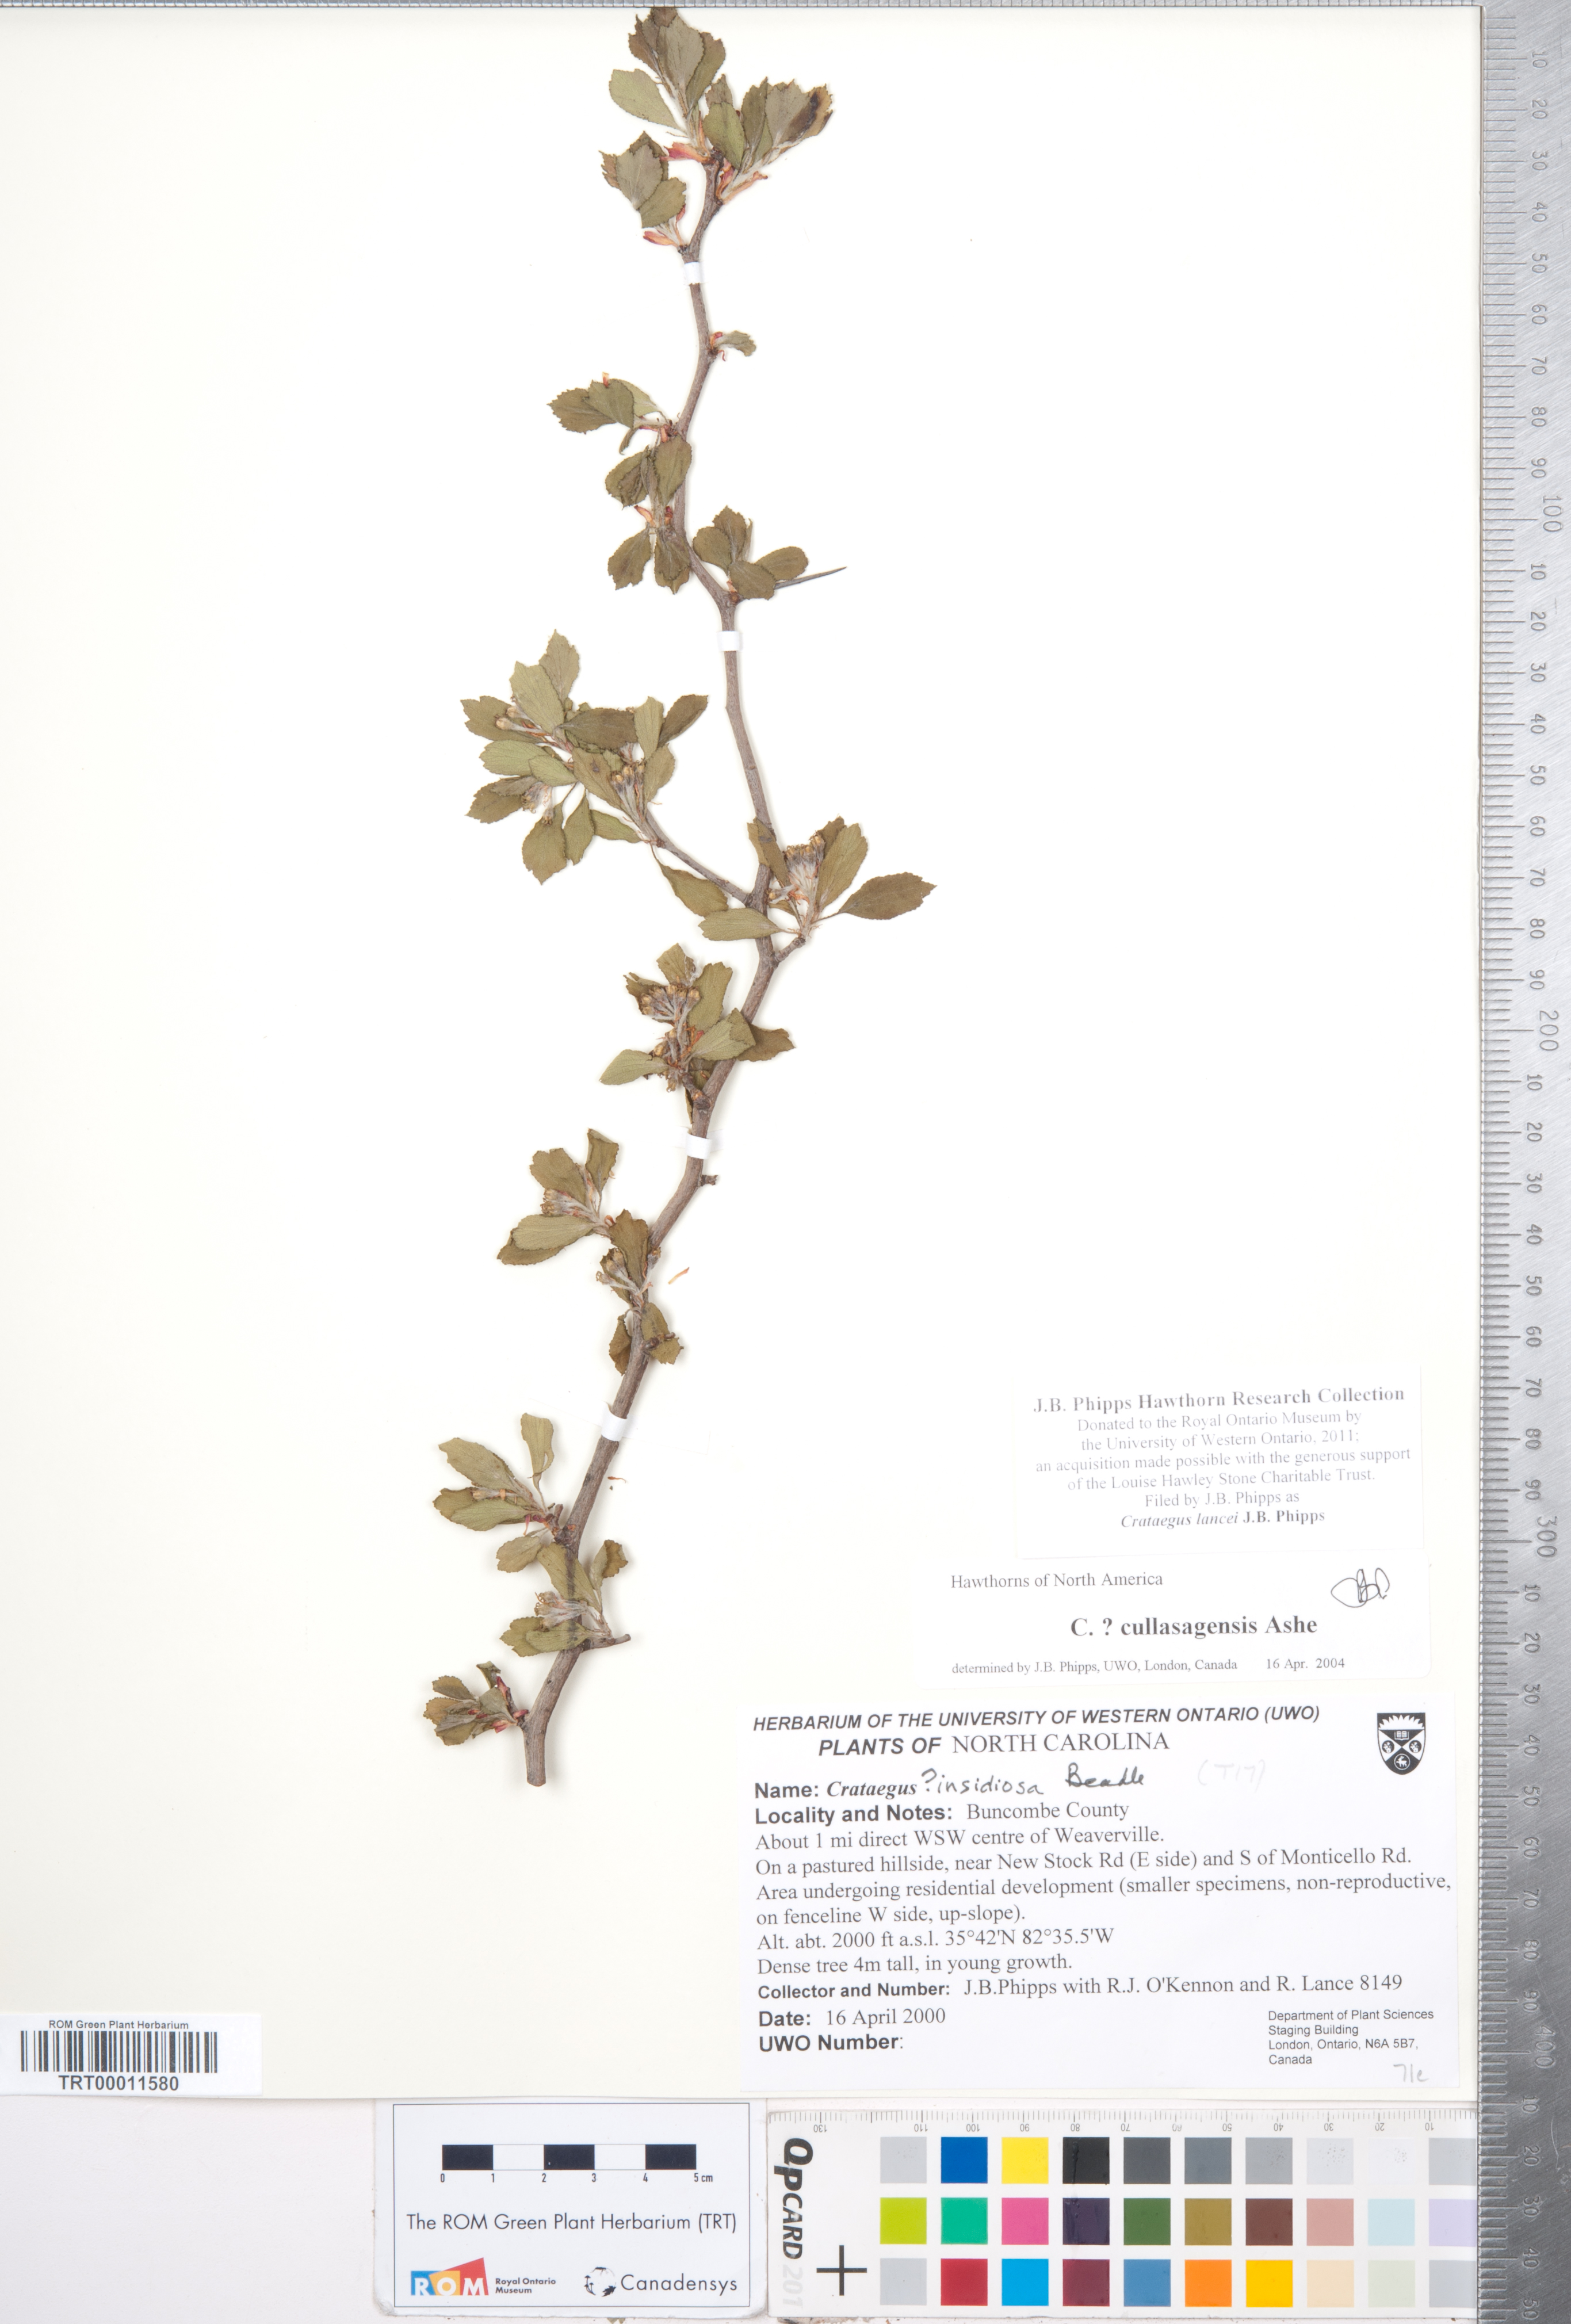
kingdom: Plantae
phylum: Tracheophyta
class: Magnoliopsida
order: Rosales
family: Rosaceae
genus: Crataegus
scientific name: Crataegus senta
